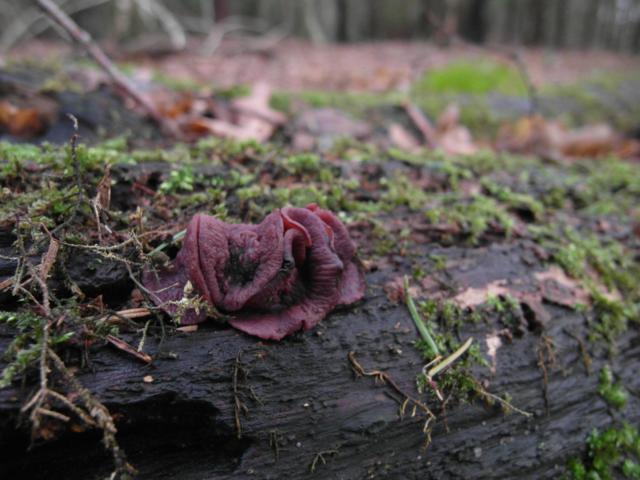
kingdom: Fungi
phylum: Ascomycota
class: Leotiomycetes
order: Helotiales
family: Gelatinodiscaceae
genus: Ascocoryne
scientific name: Ascocoryne cylichnium
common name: stor sejskive
